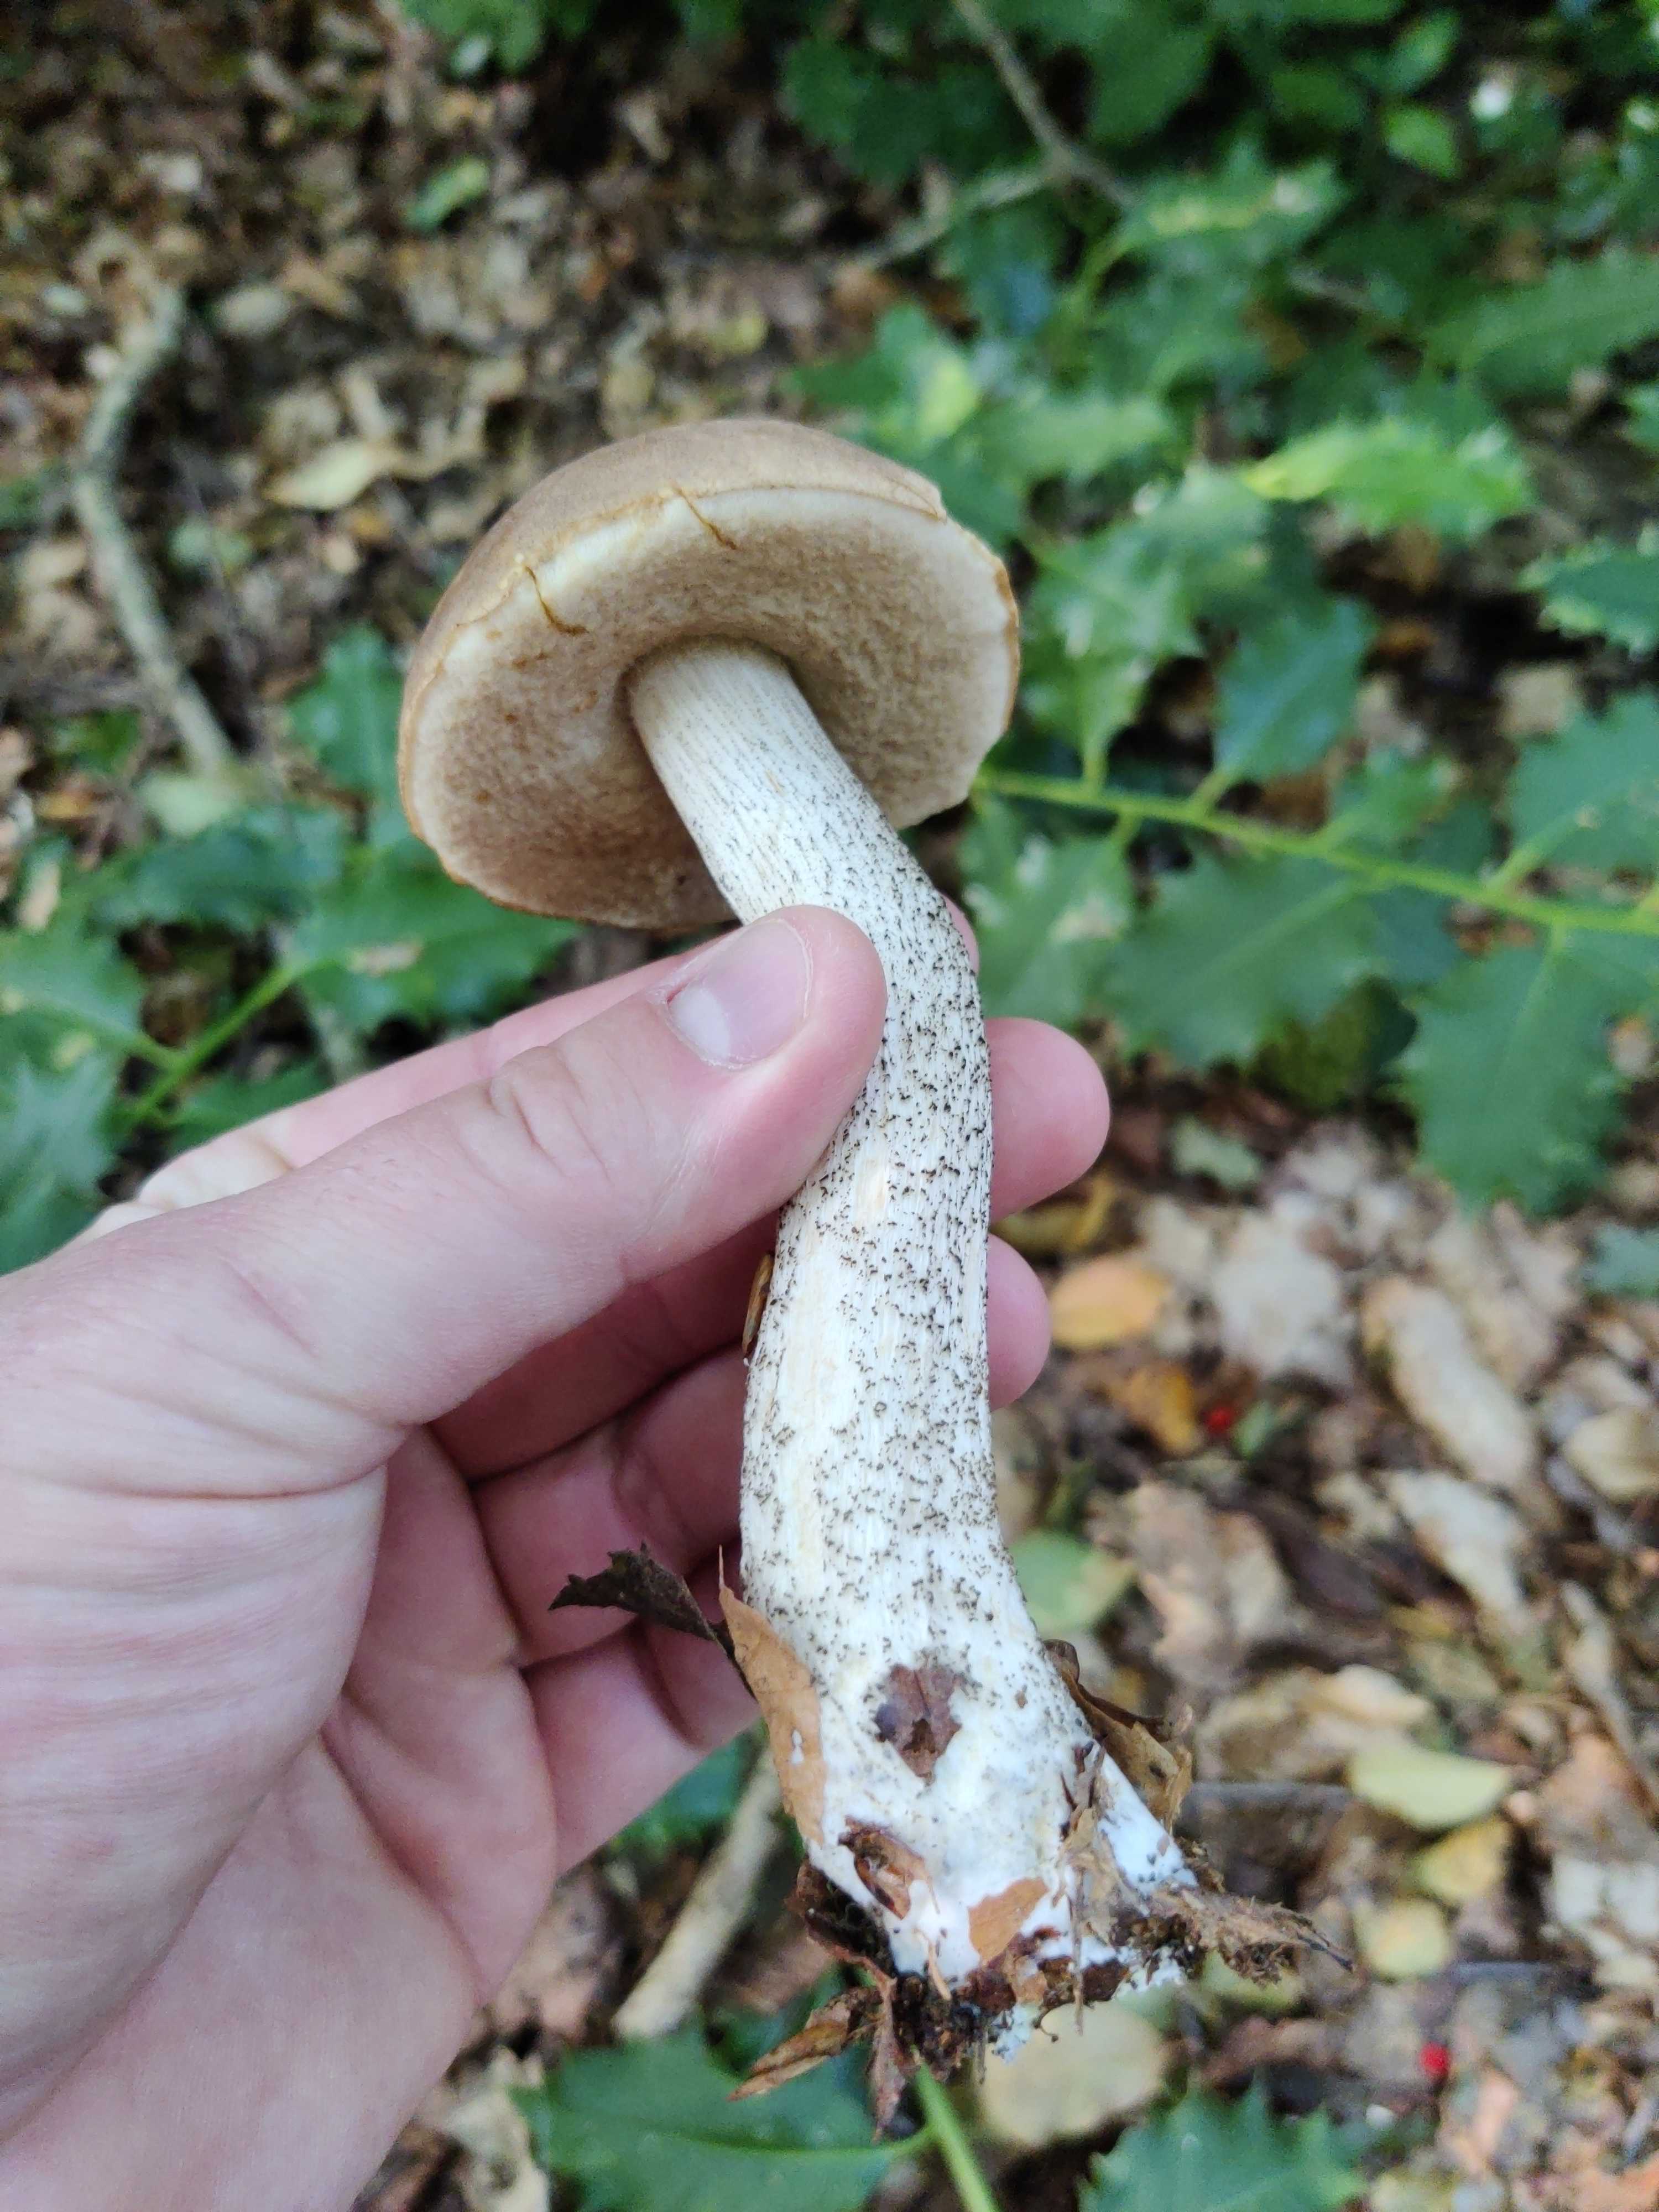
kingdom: Fungi
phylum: Basidiomycota
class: Agaricomycetes
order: Boletales
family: Boletaceae
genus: Leccinum
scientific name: Leccinum scabrum
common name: brun skælrørhat
